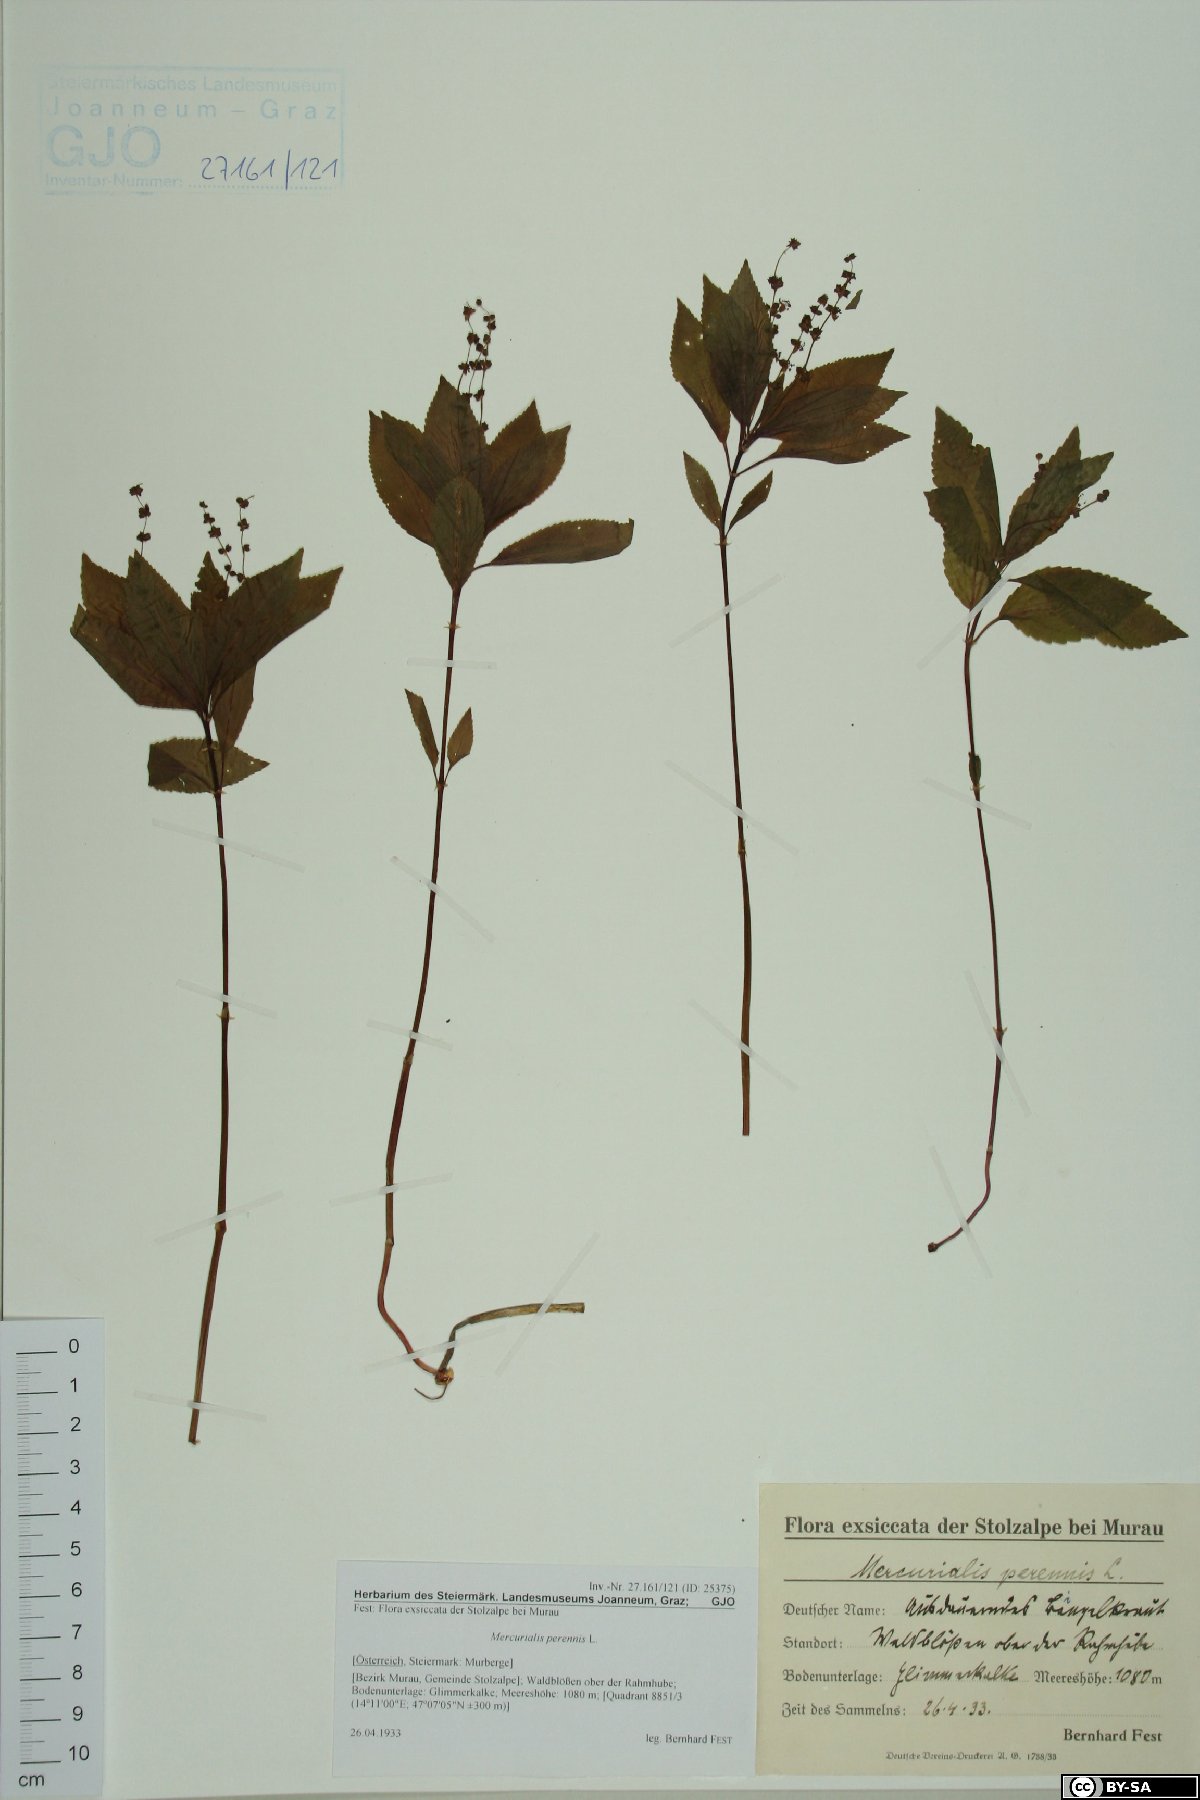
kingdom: Plantae
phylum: Tracheophyta
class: Magnoliopsida
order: Malpighiales
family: Euphorbiaceae
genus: Mercurialis
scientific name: Mercurialis perennis
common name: Dog mercury
